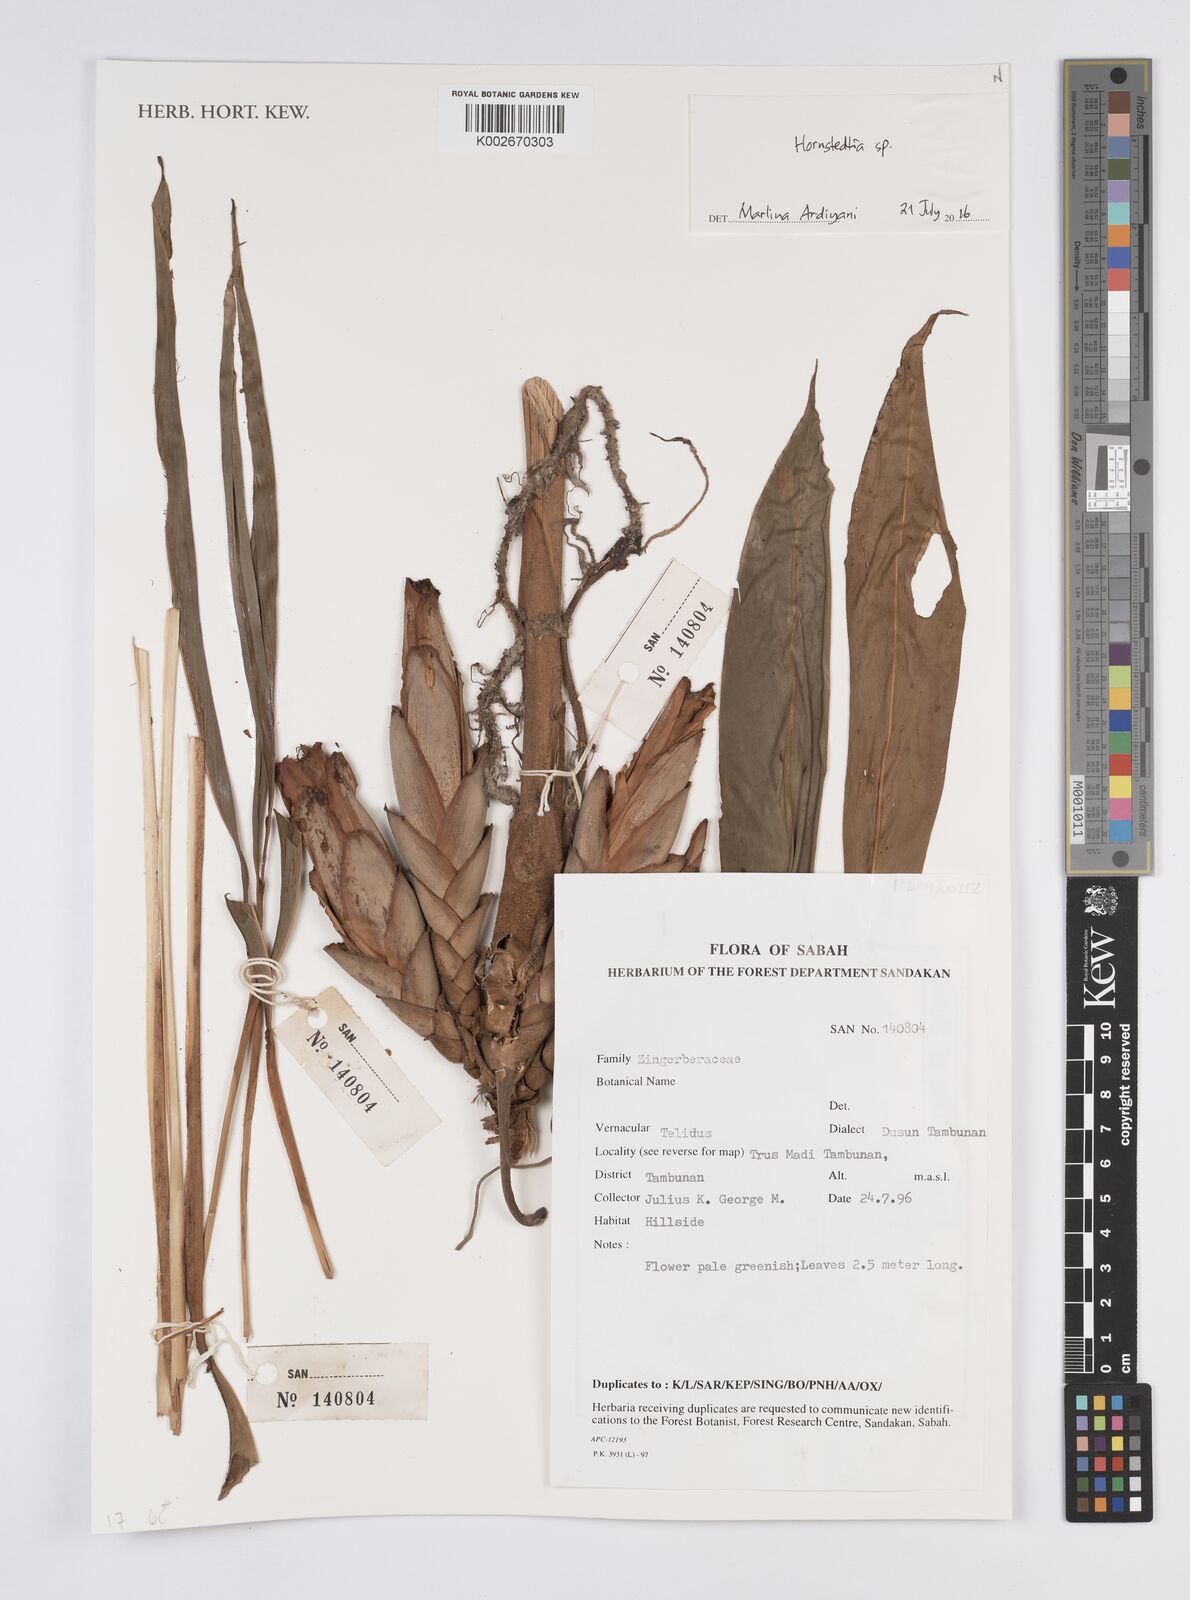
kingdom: Plantae
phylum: Tracheophyta
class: Liliopsida
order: Zingiberales
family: Zingiberaceae
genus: Hornstedtia
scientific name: Hornstedtia
